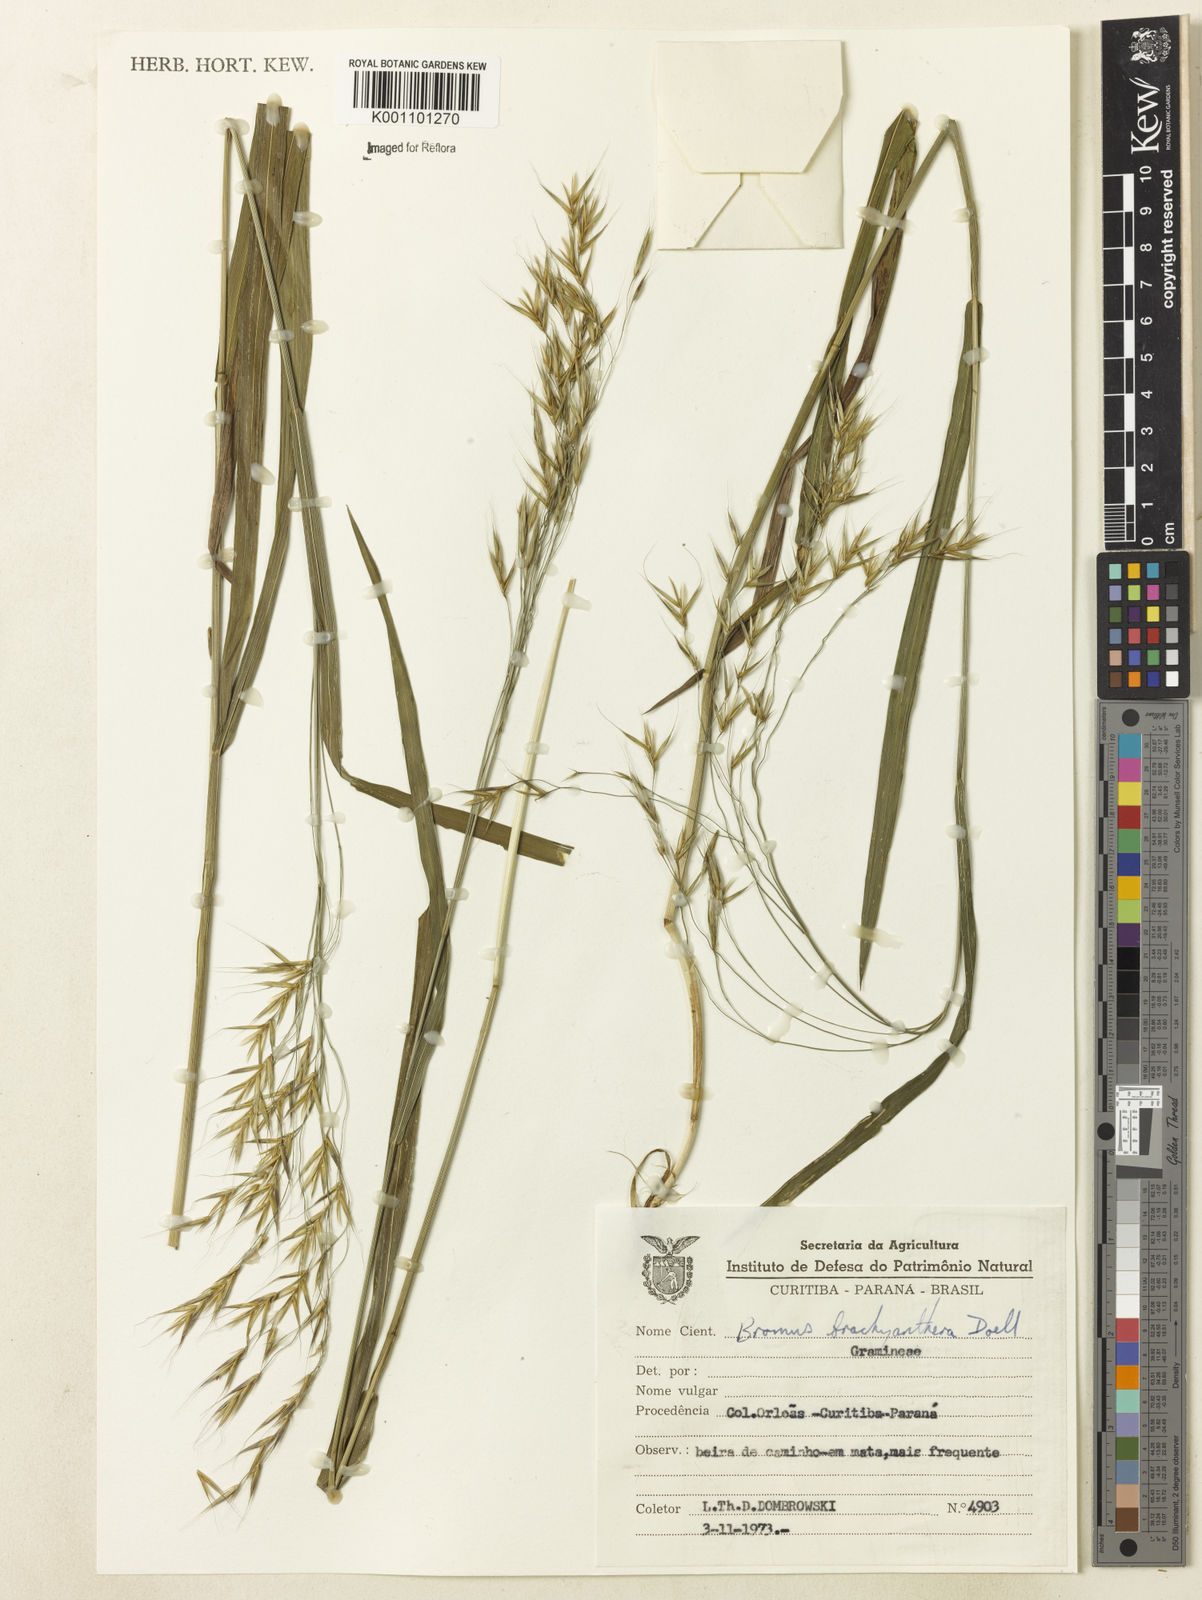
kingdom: Plantae
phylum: Tracheophyta
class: Liliopsida
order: Poales
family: Poaceae
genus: Bromus
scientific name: Bromus
